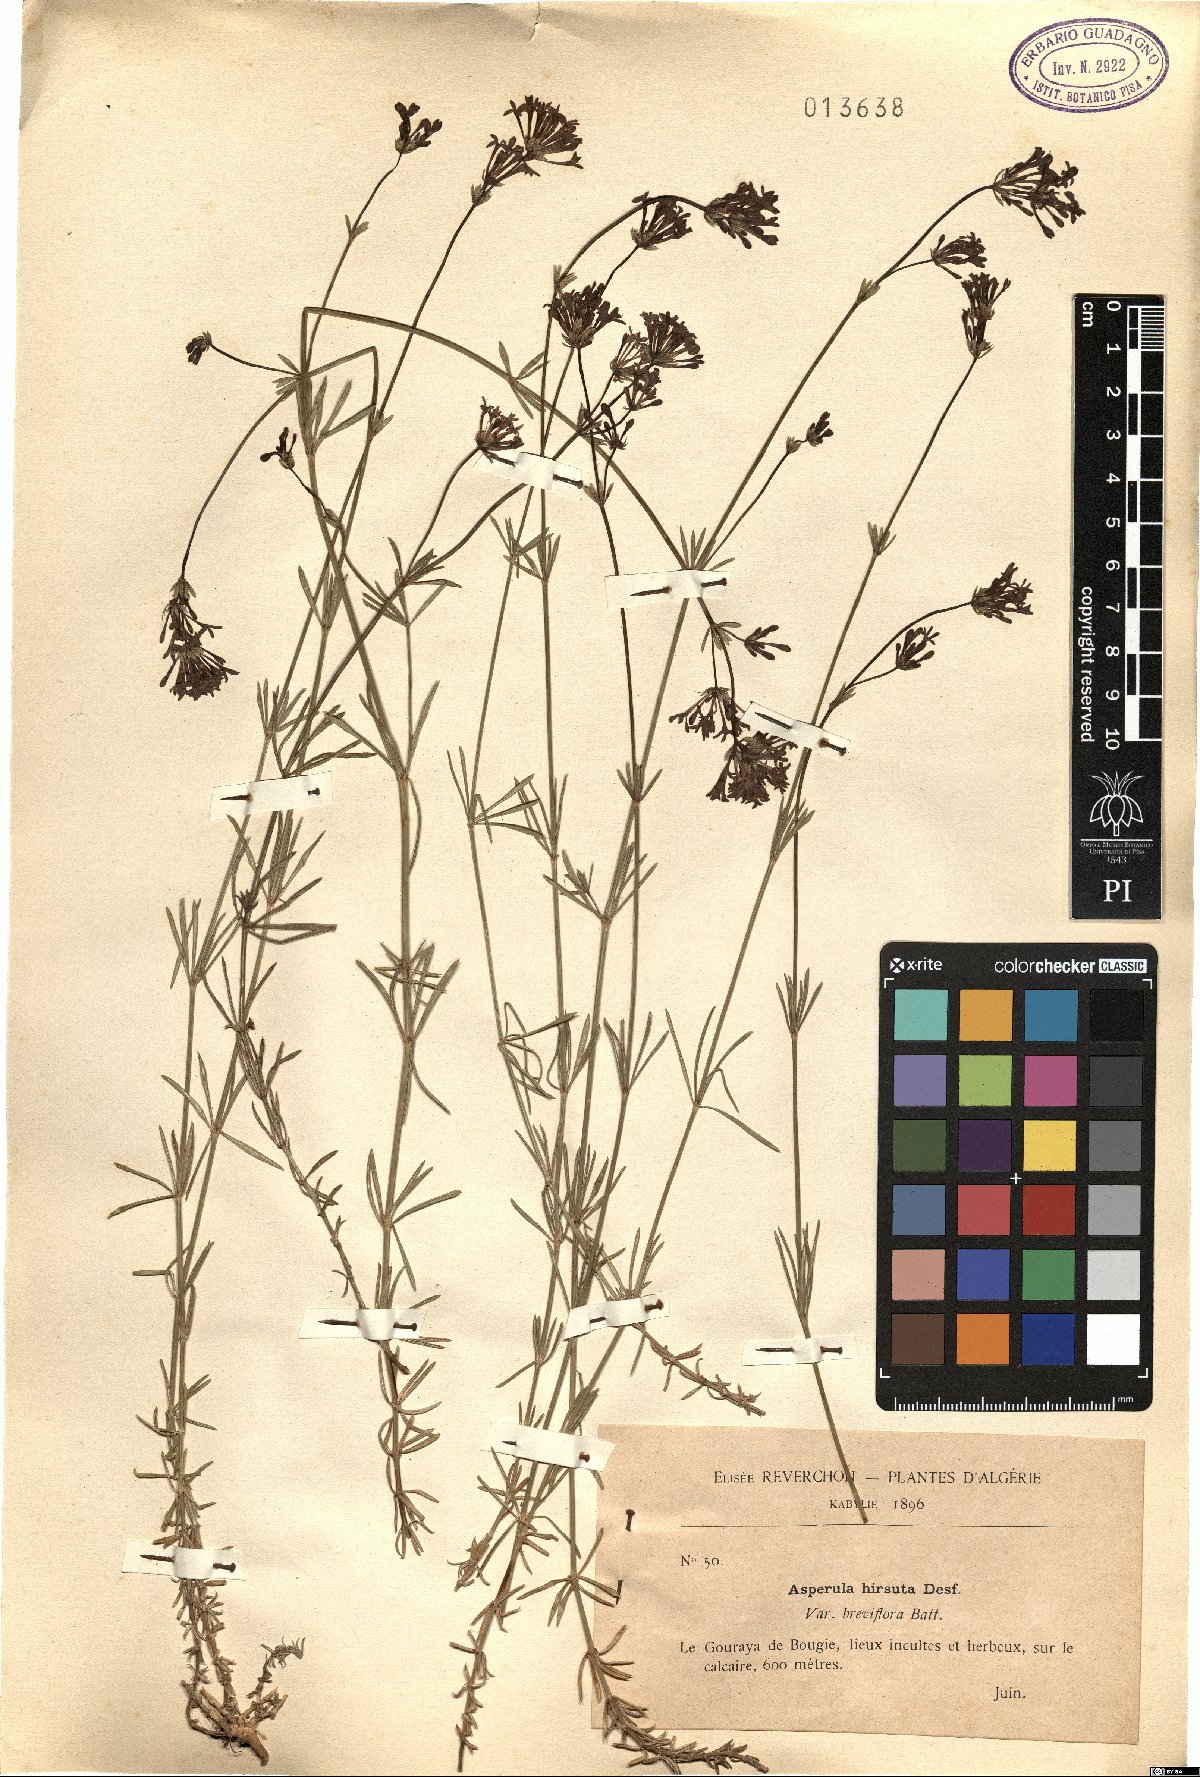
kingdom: Plantae
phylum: Tracheophyta
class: Magnoliopsida
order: Gentianales
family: Rubiaceae
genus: Hexaphylla
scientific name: Hexaphylla hirsuta
